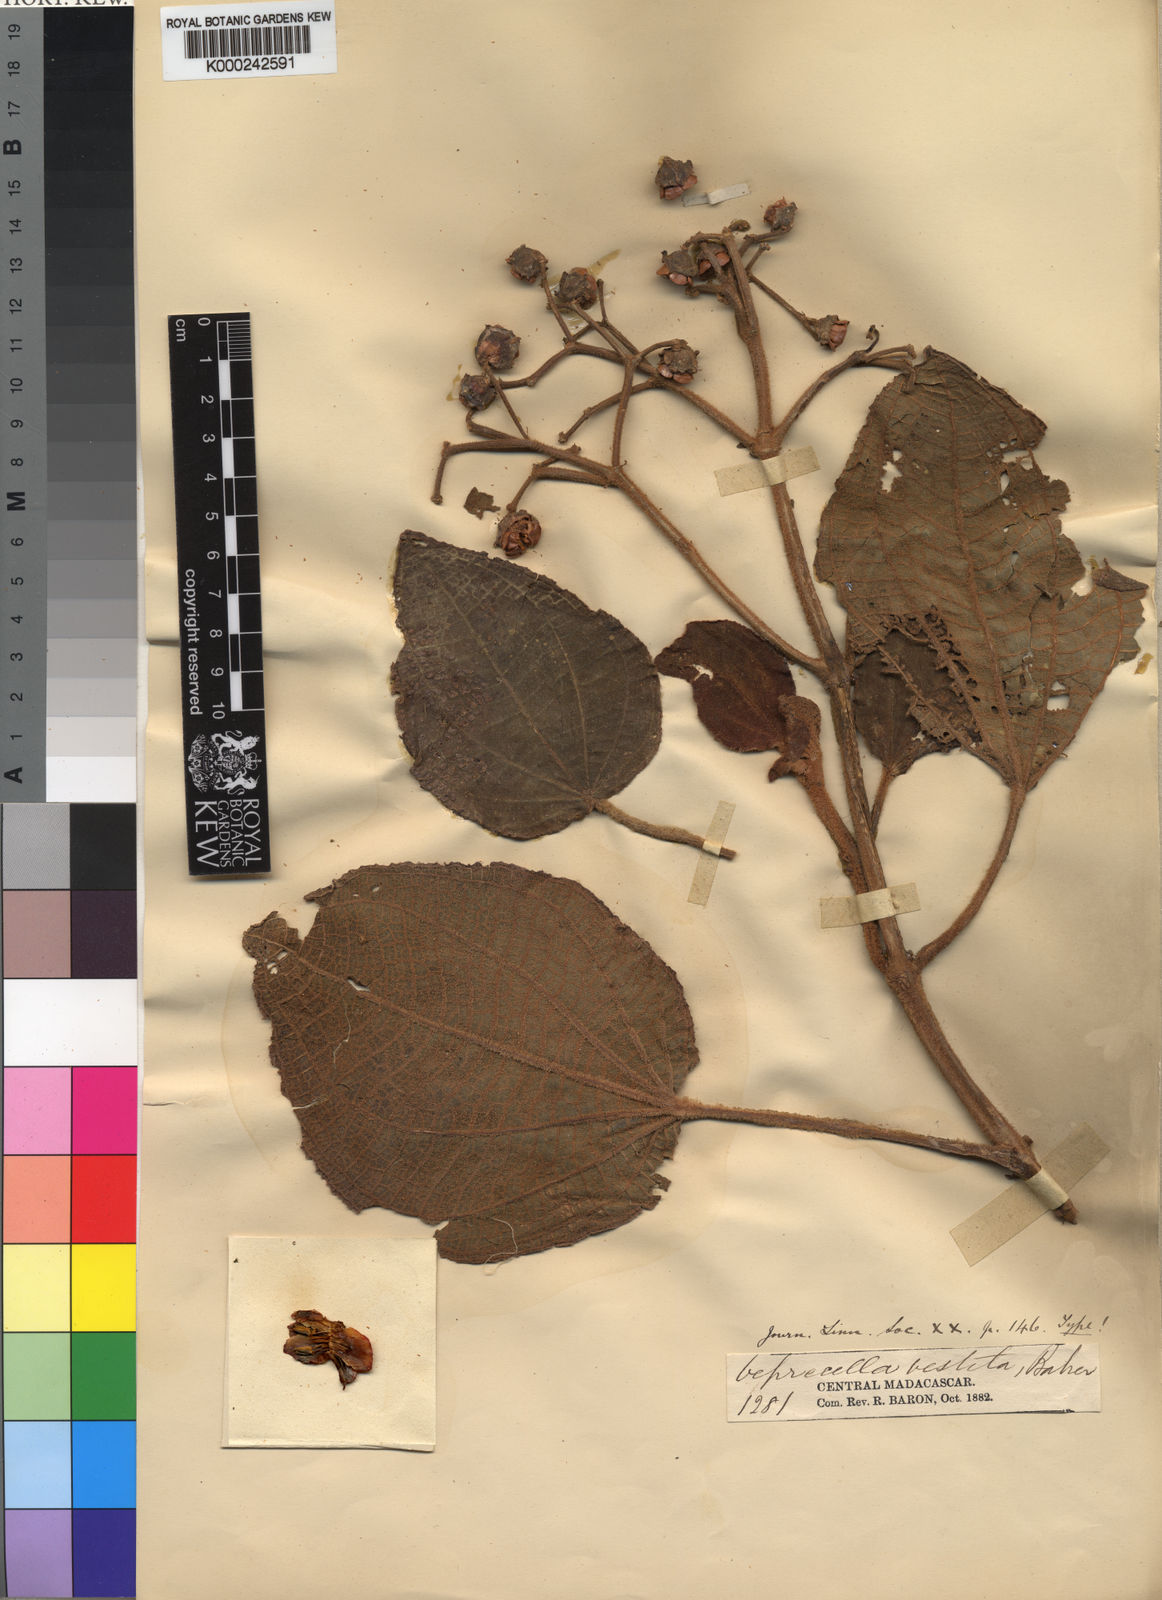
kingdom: Plantae
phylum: Tracheophyta
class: Magnoliopsida
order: Myrtales
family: Melastomataceae
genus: Gravesia
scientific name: Gravesia vestita
